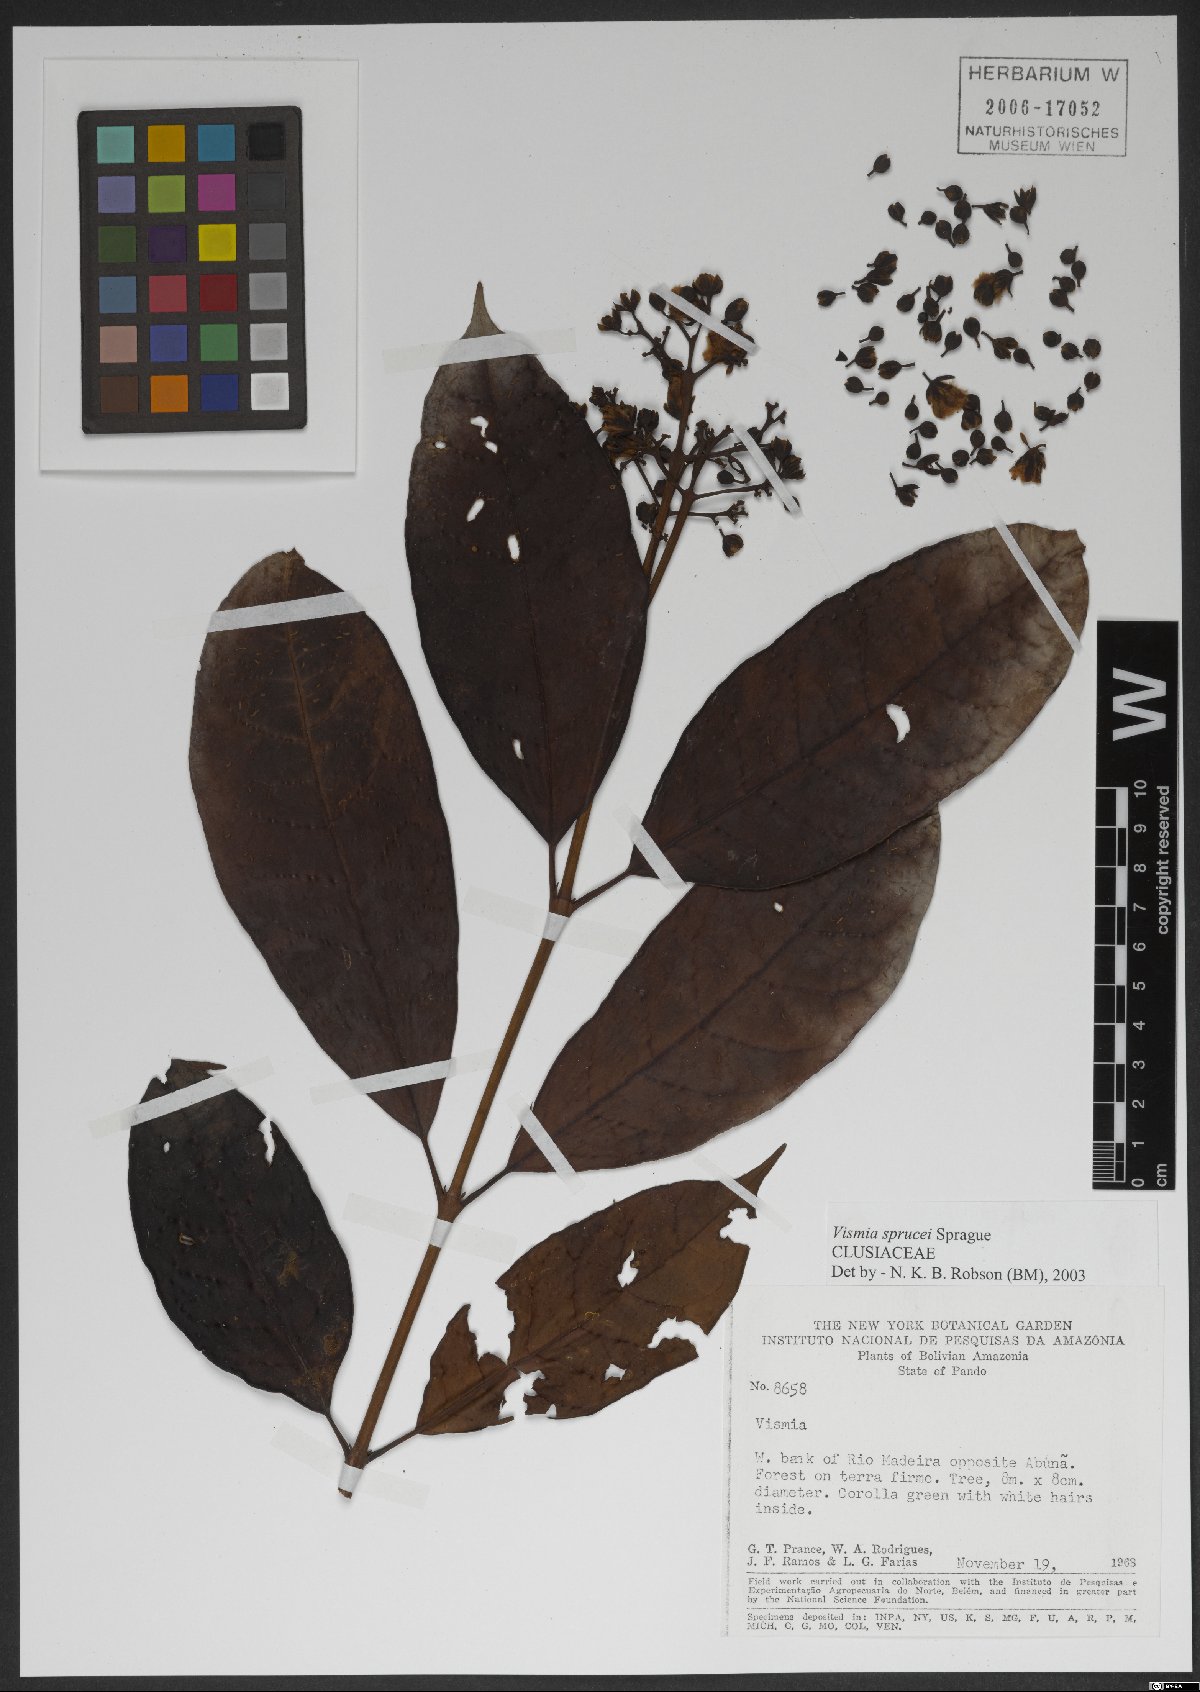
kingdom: Plantae
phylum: Tracheophyta
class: Magnoliopsida
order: Malpighiales
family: Hypericaceae
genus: Vismia
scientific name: Vismia sprucei
